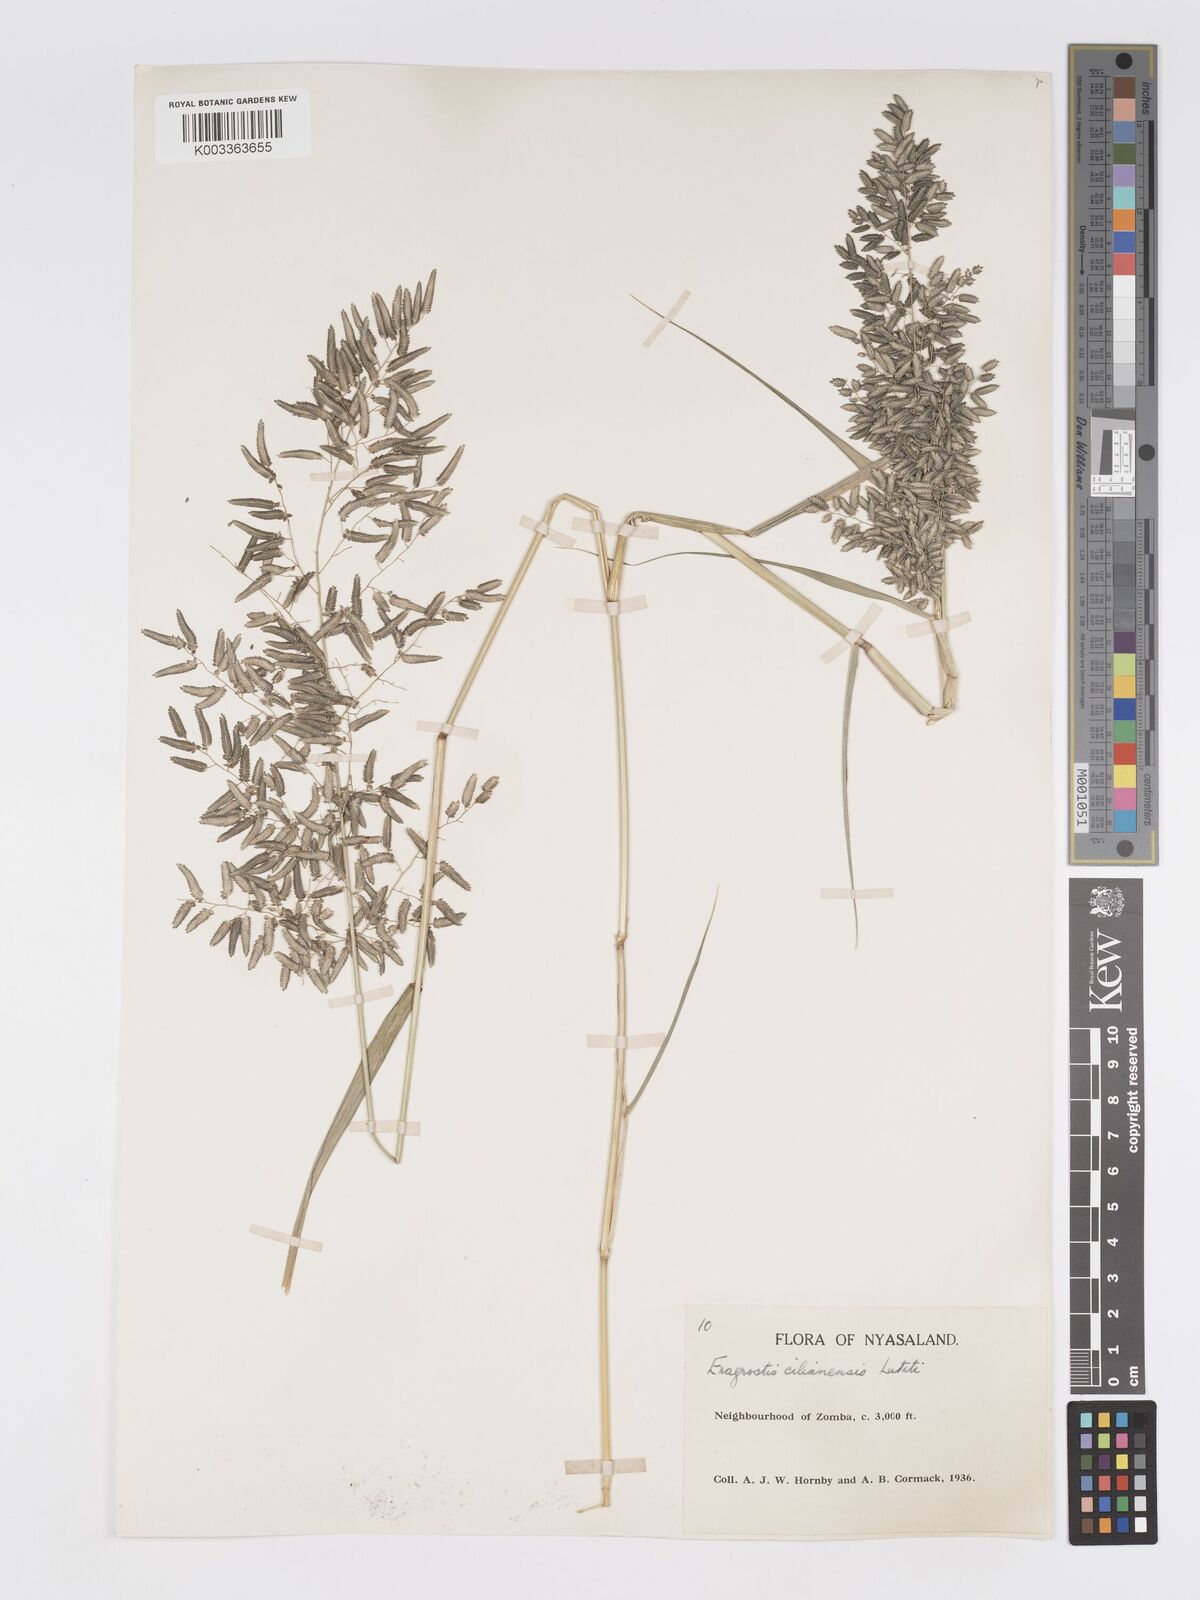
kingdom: Plantae
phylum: Tracheophyta
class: Liliopsida
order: Poales
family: Poaceae
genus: Eragrostis
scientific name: Eragrostis cilianensis
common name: Stinkgrass
